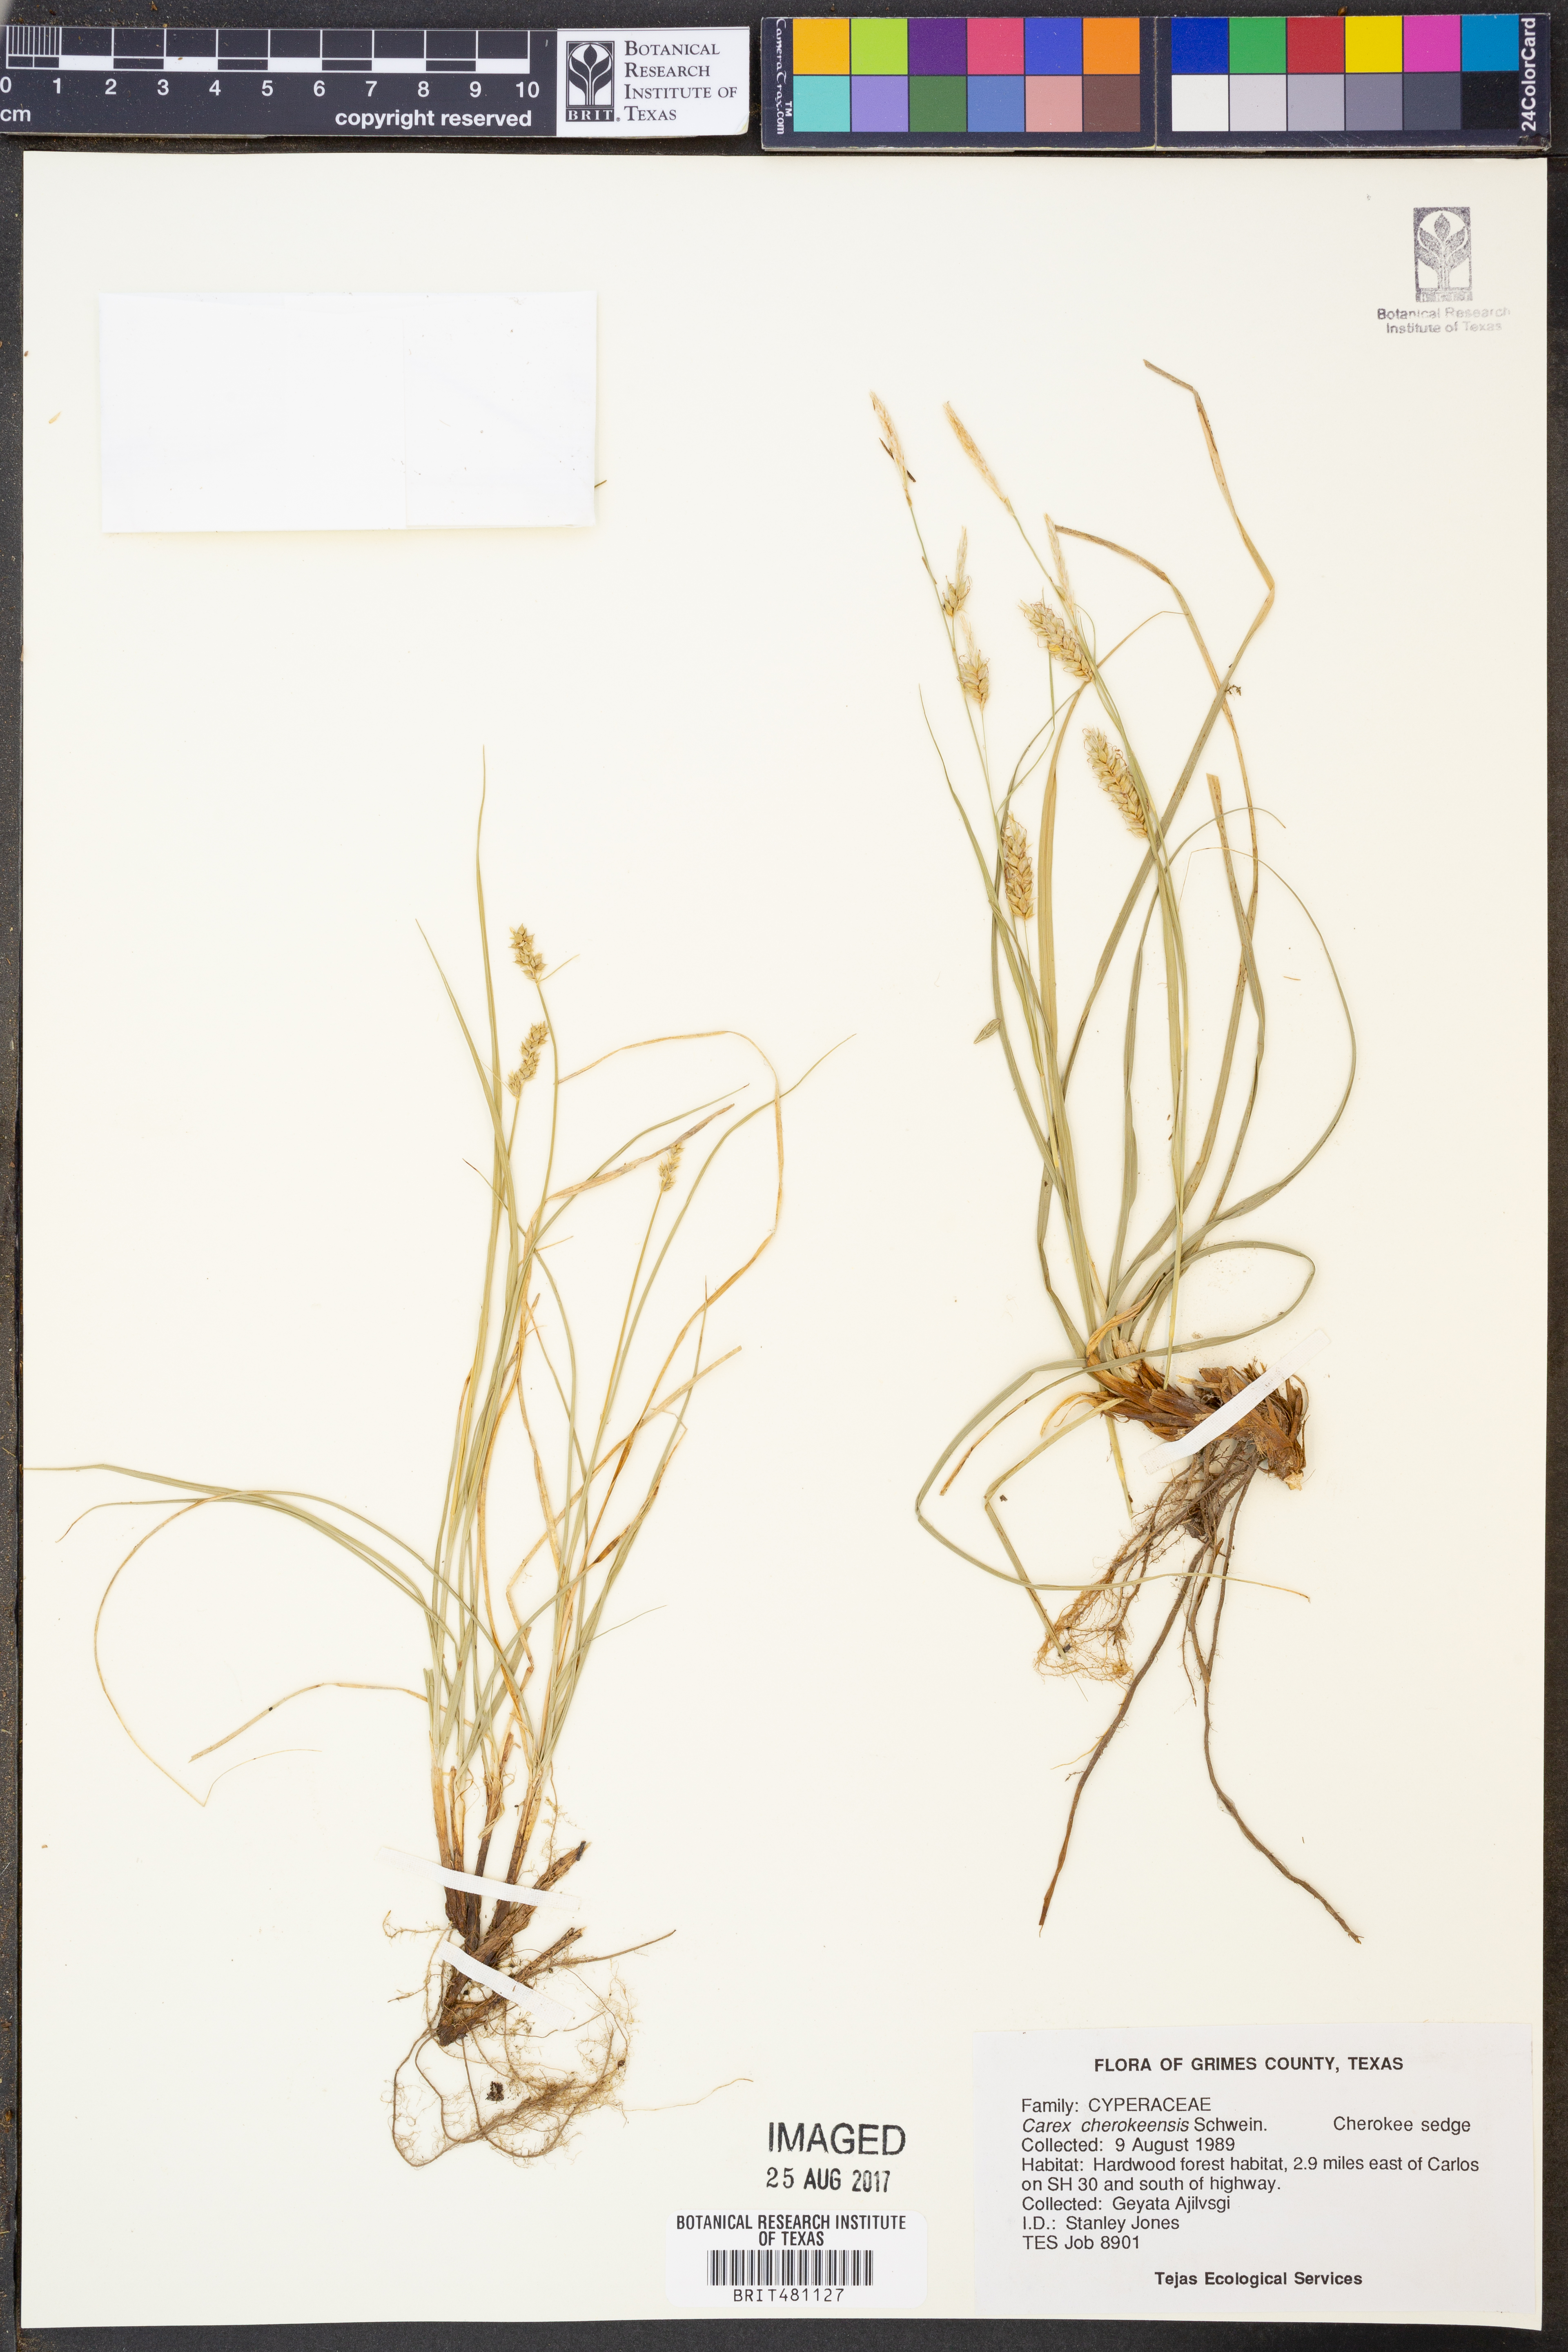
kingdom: Plantae
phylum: Tracheophyta
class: Liliopsida
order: Poales
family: Cyperaceae
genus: Carex
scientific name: Carex cherokeensis
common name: Cherokee sedge
